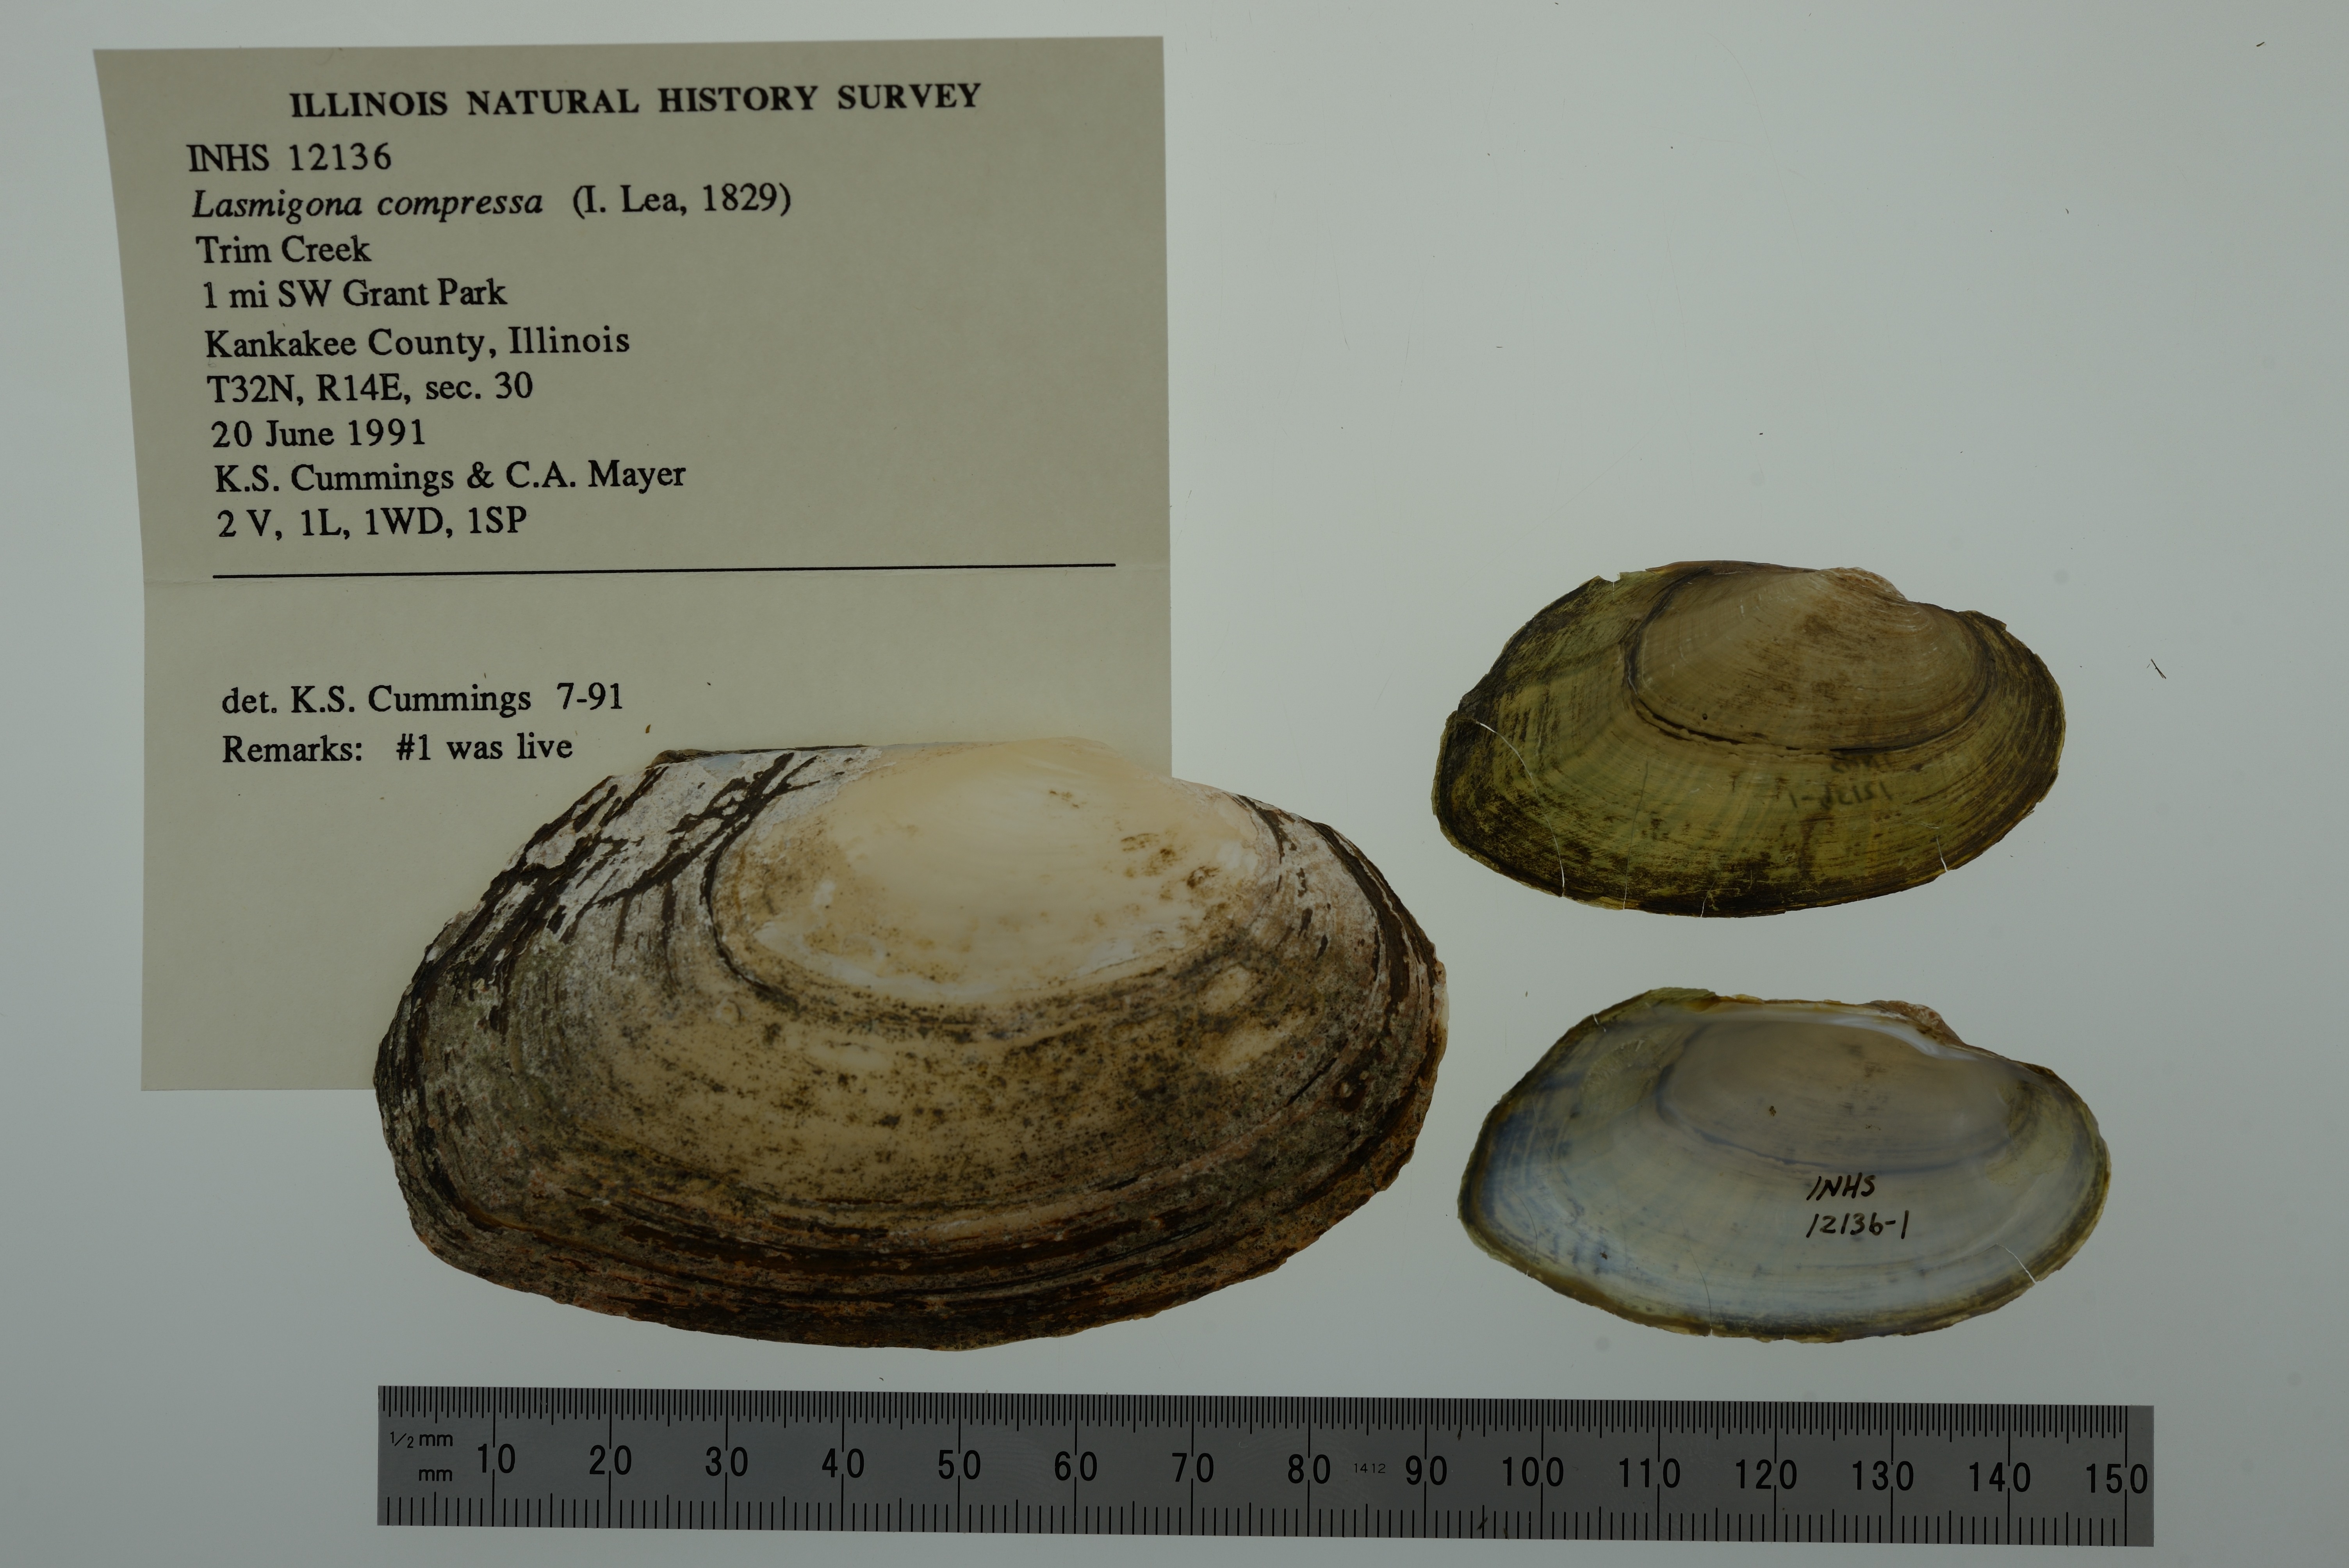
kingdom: Animalia
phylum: Mollusca
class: Bivalvia
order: Unionida
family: Unionidae
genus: Lasmigona
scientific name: Lasmigona compressa
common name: Creek heelsplitter
